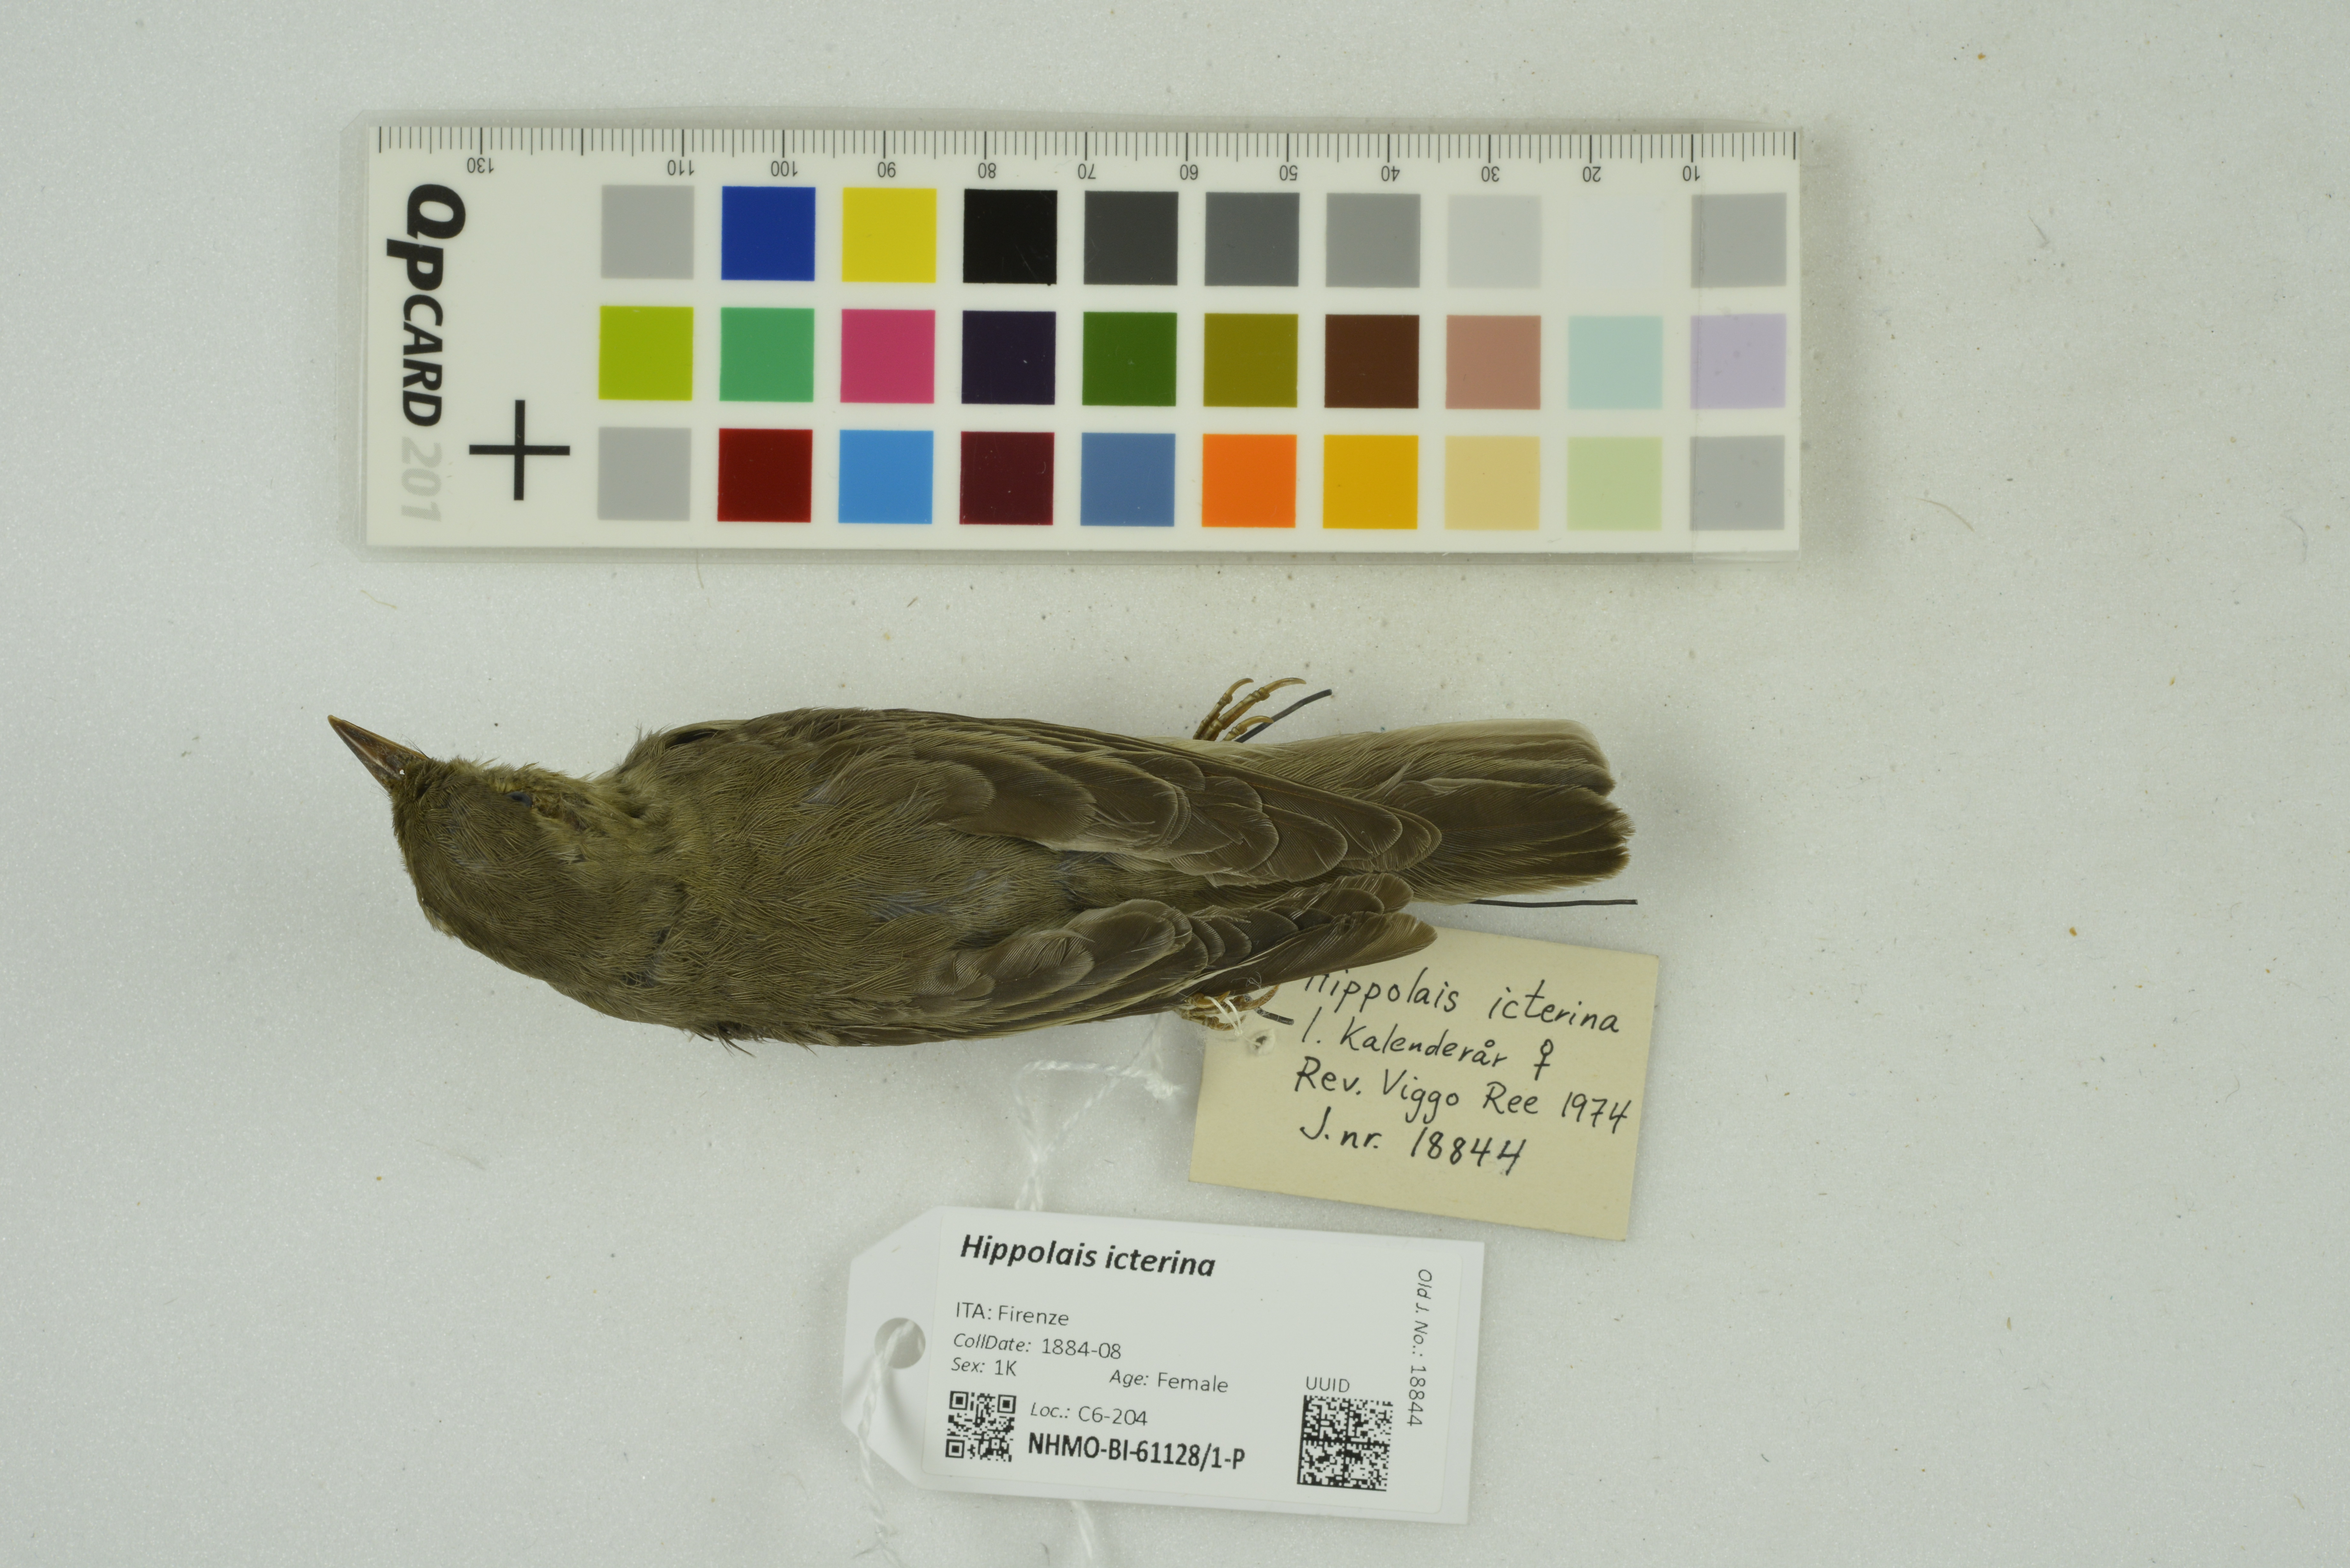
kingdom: Animalia
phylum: Chordata
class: Aves
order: Passeriformes
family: Acrocephalidae
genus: Hippolais
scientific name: Hippolais icterina
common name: Icterine warbler
